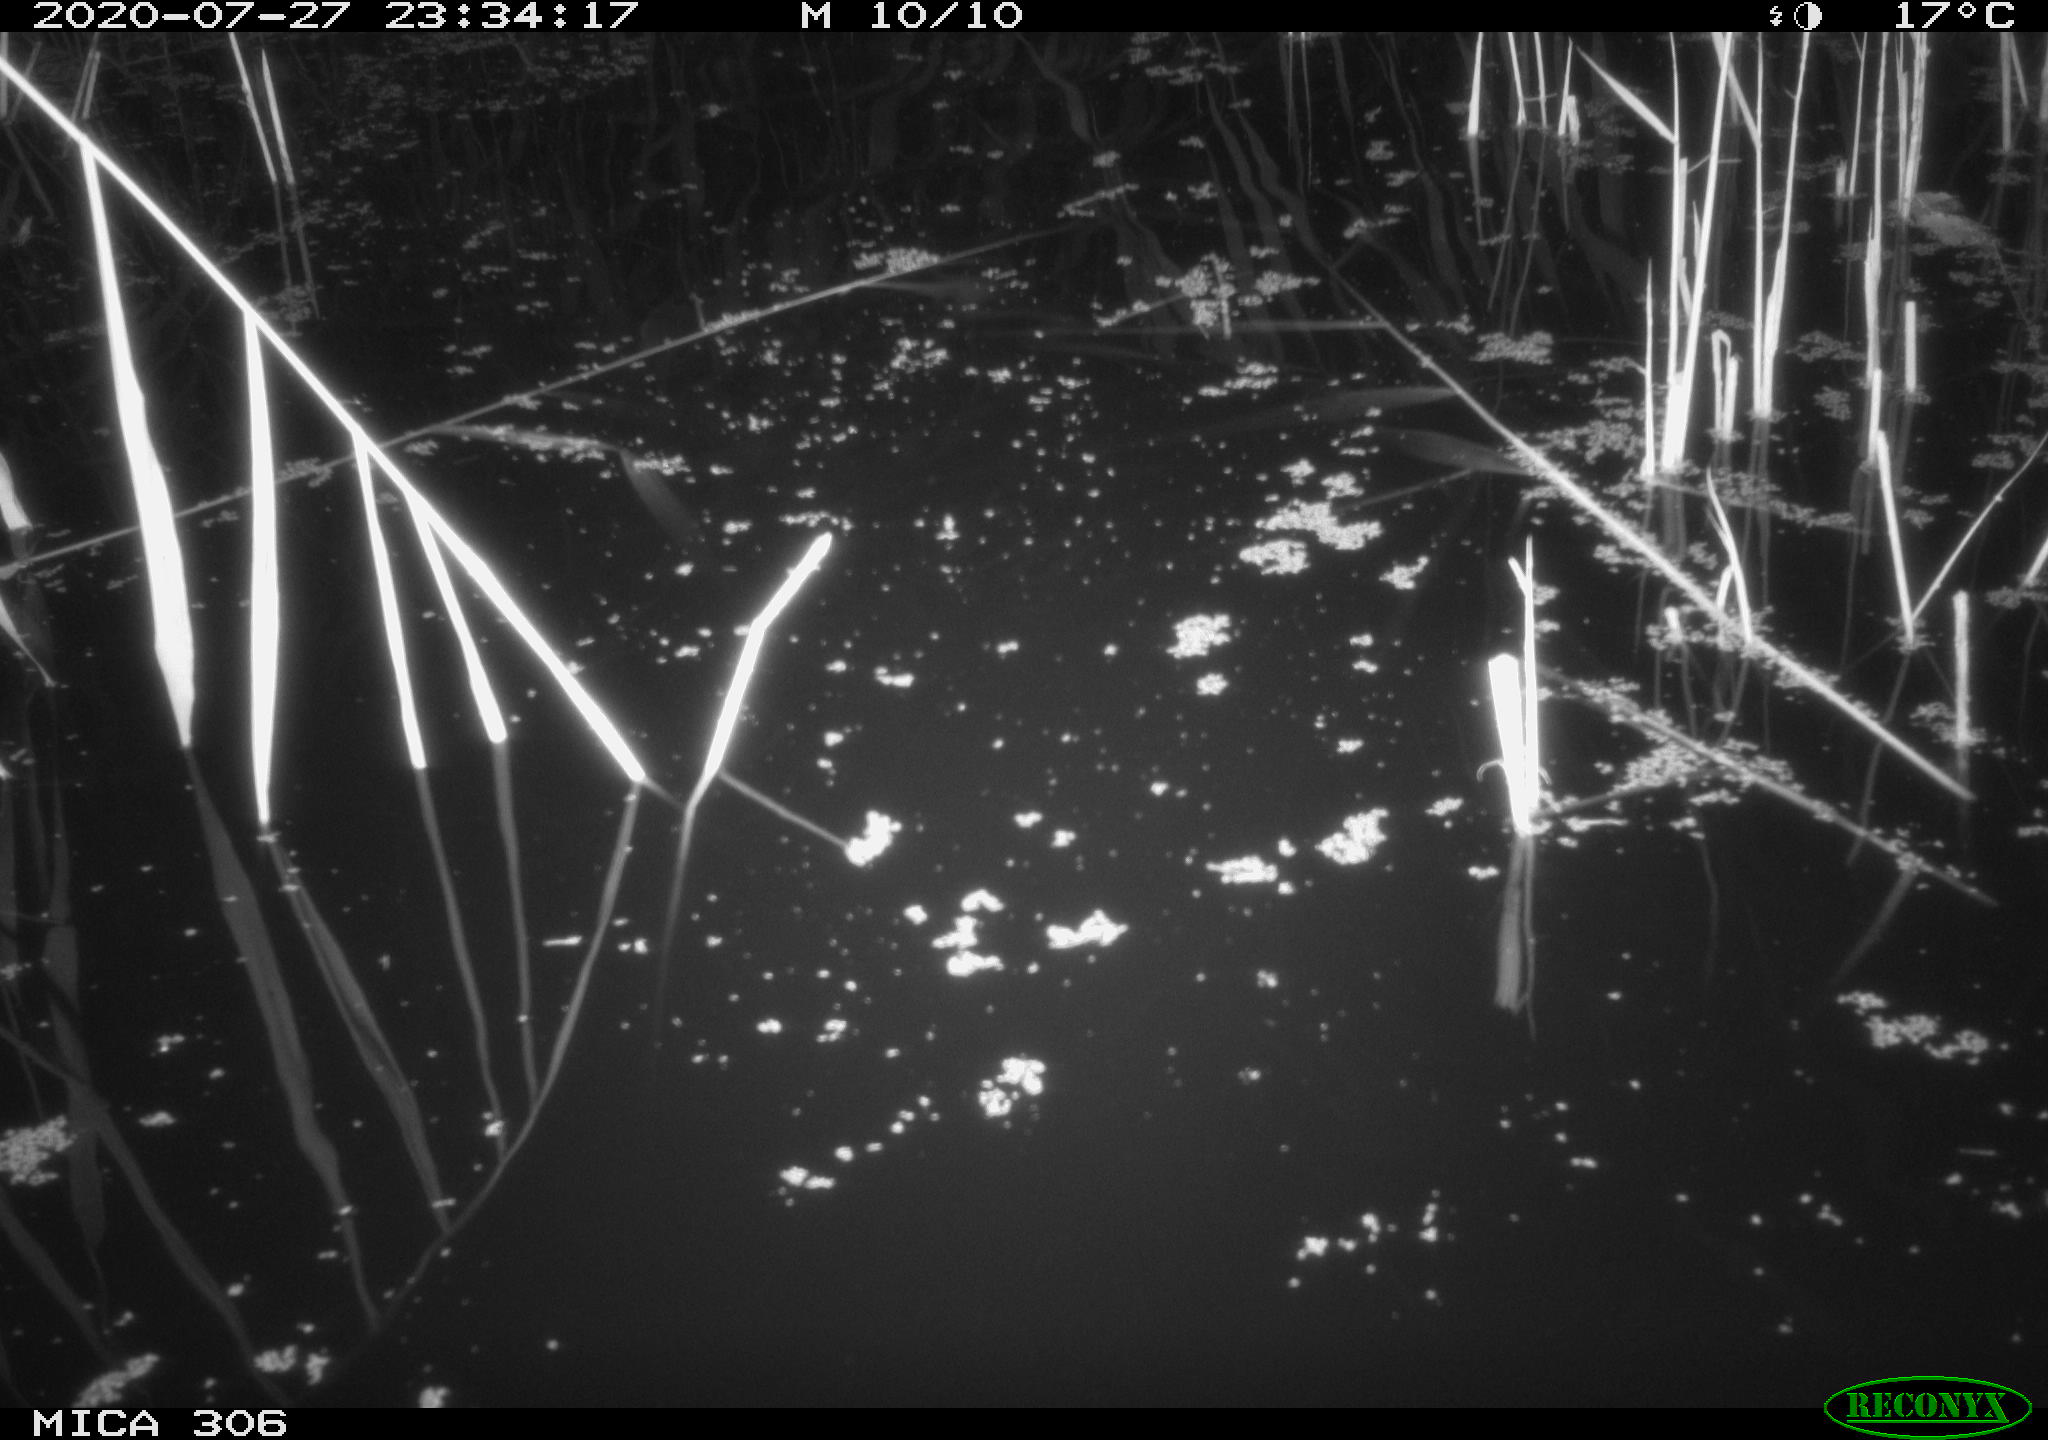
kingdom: Animalia
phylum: Chordata
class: Mammalia
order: Rodentia
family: Muridae
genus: Rattus
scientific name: Rattus norvegicus
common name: Brown rat
